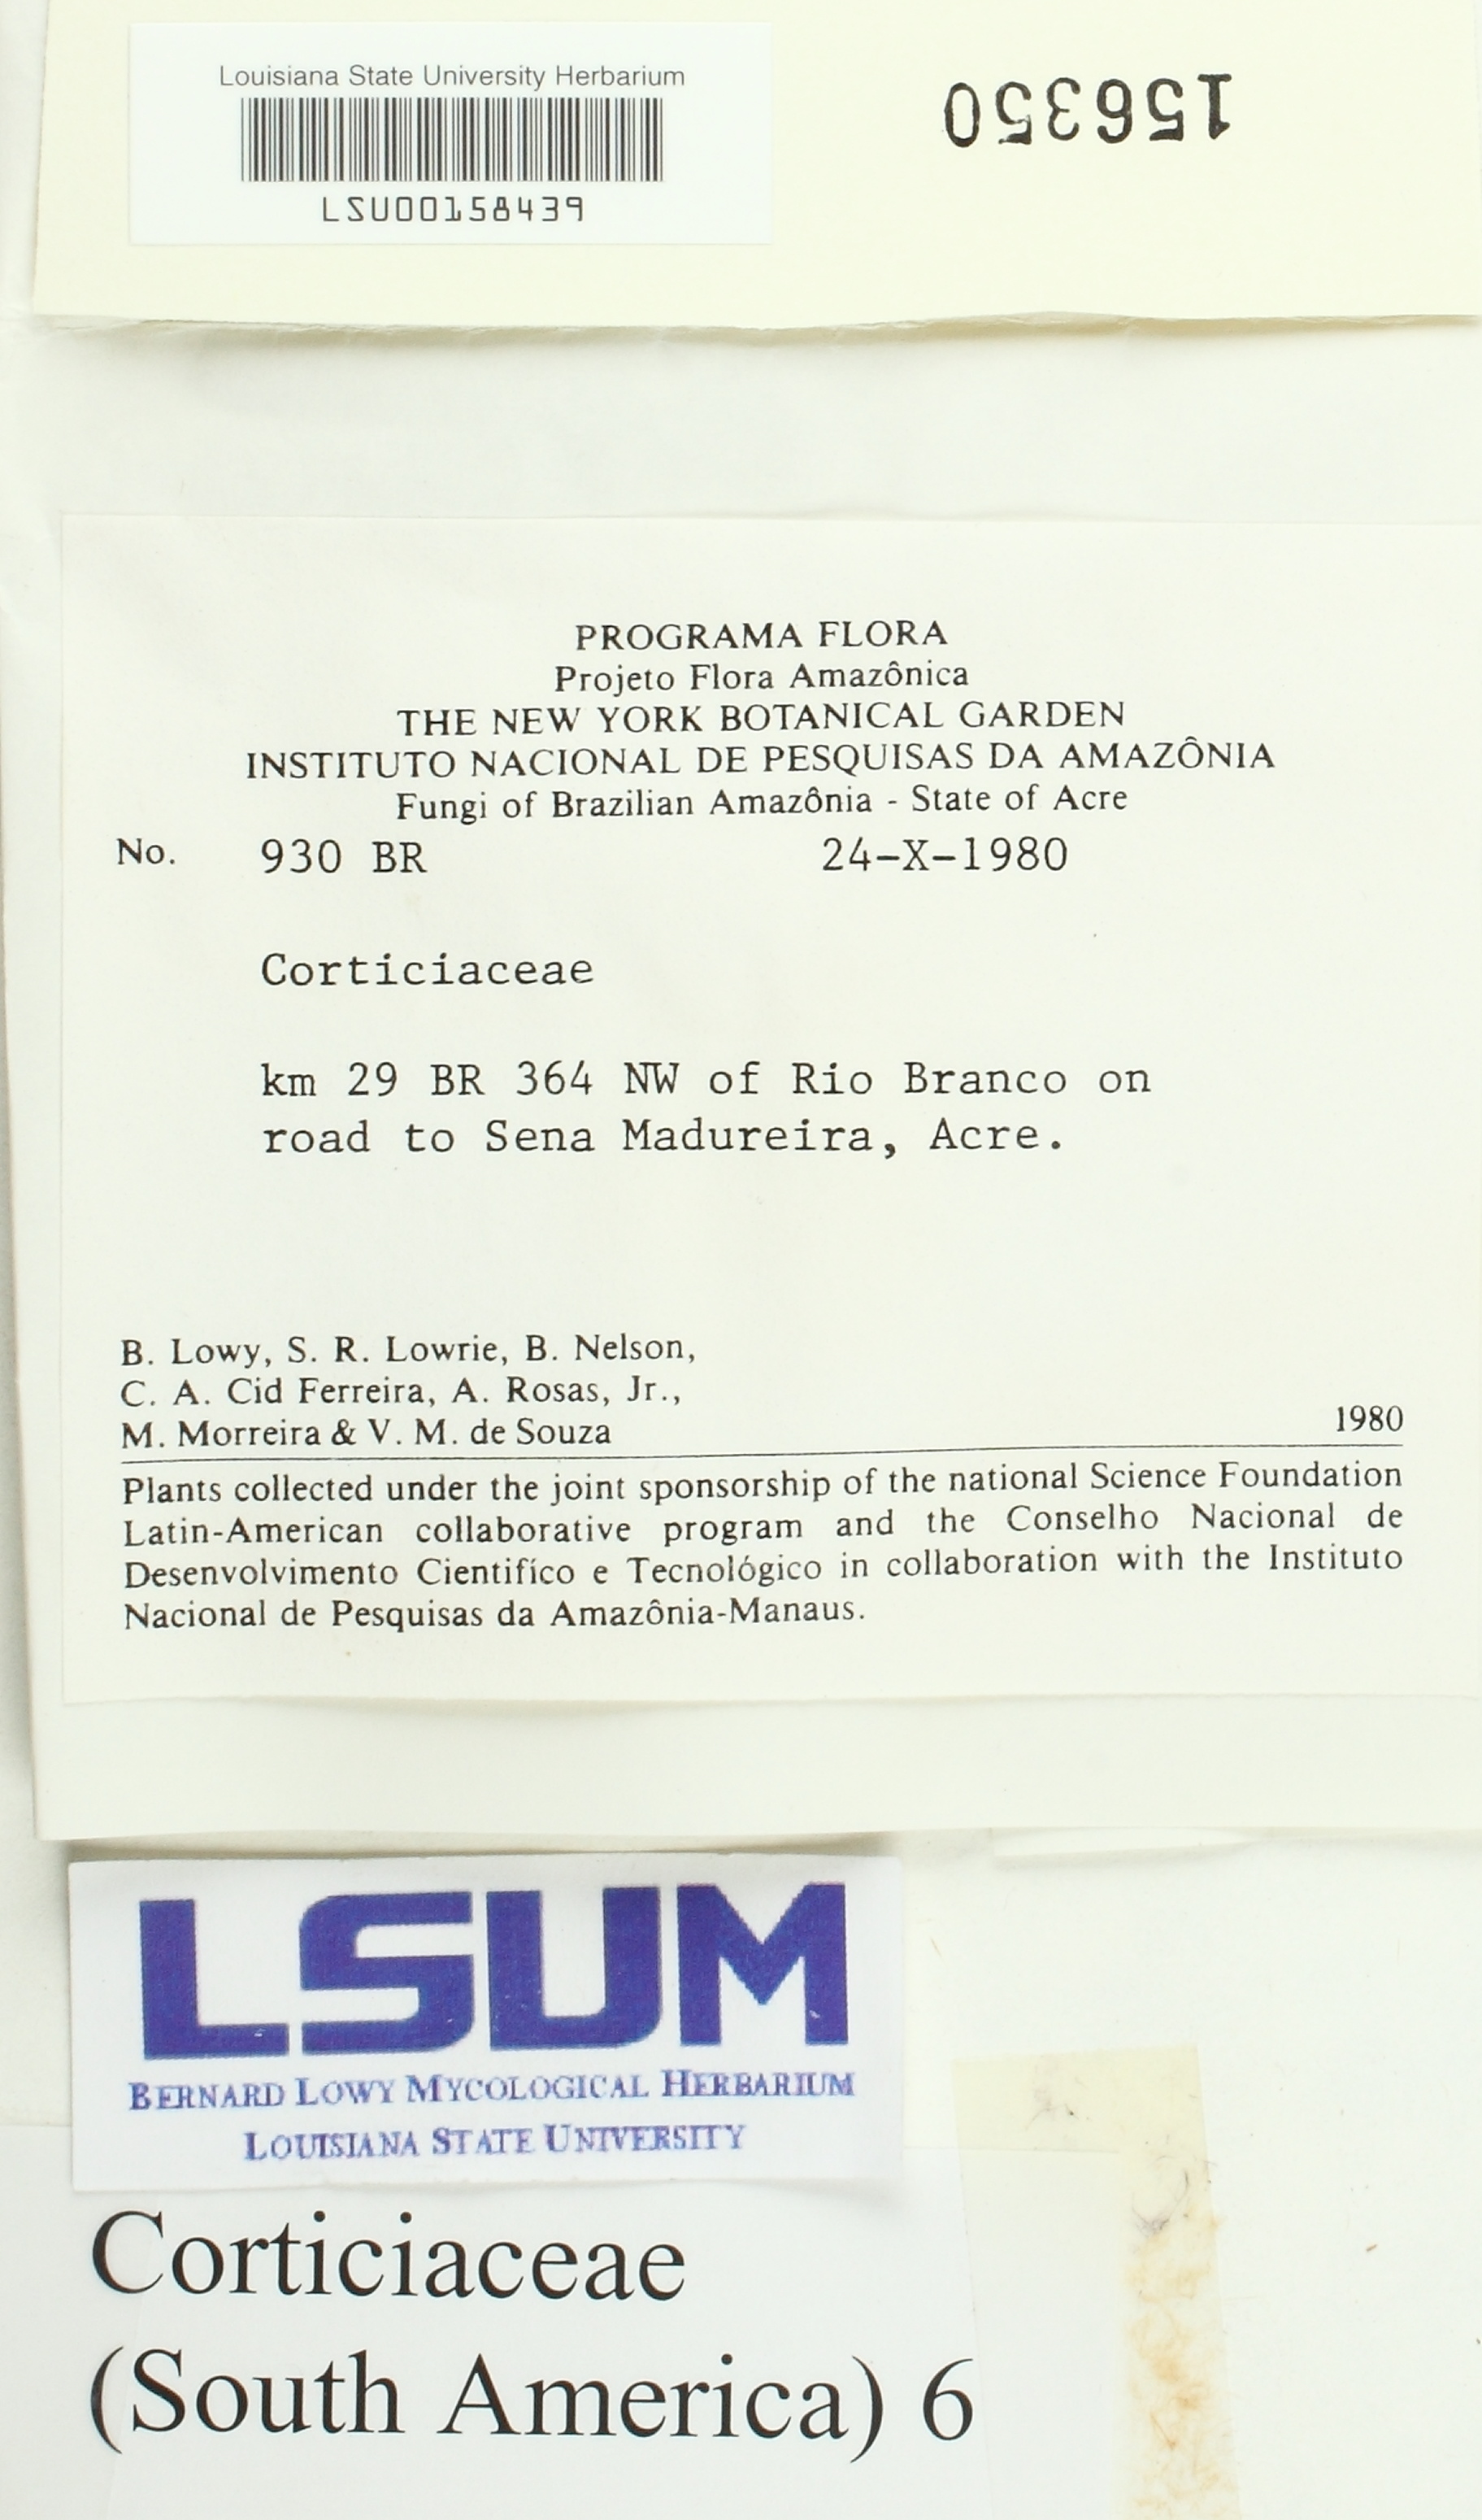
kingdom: Fungi
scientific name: Fungi
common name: Fungi
